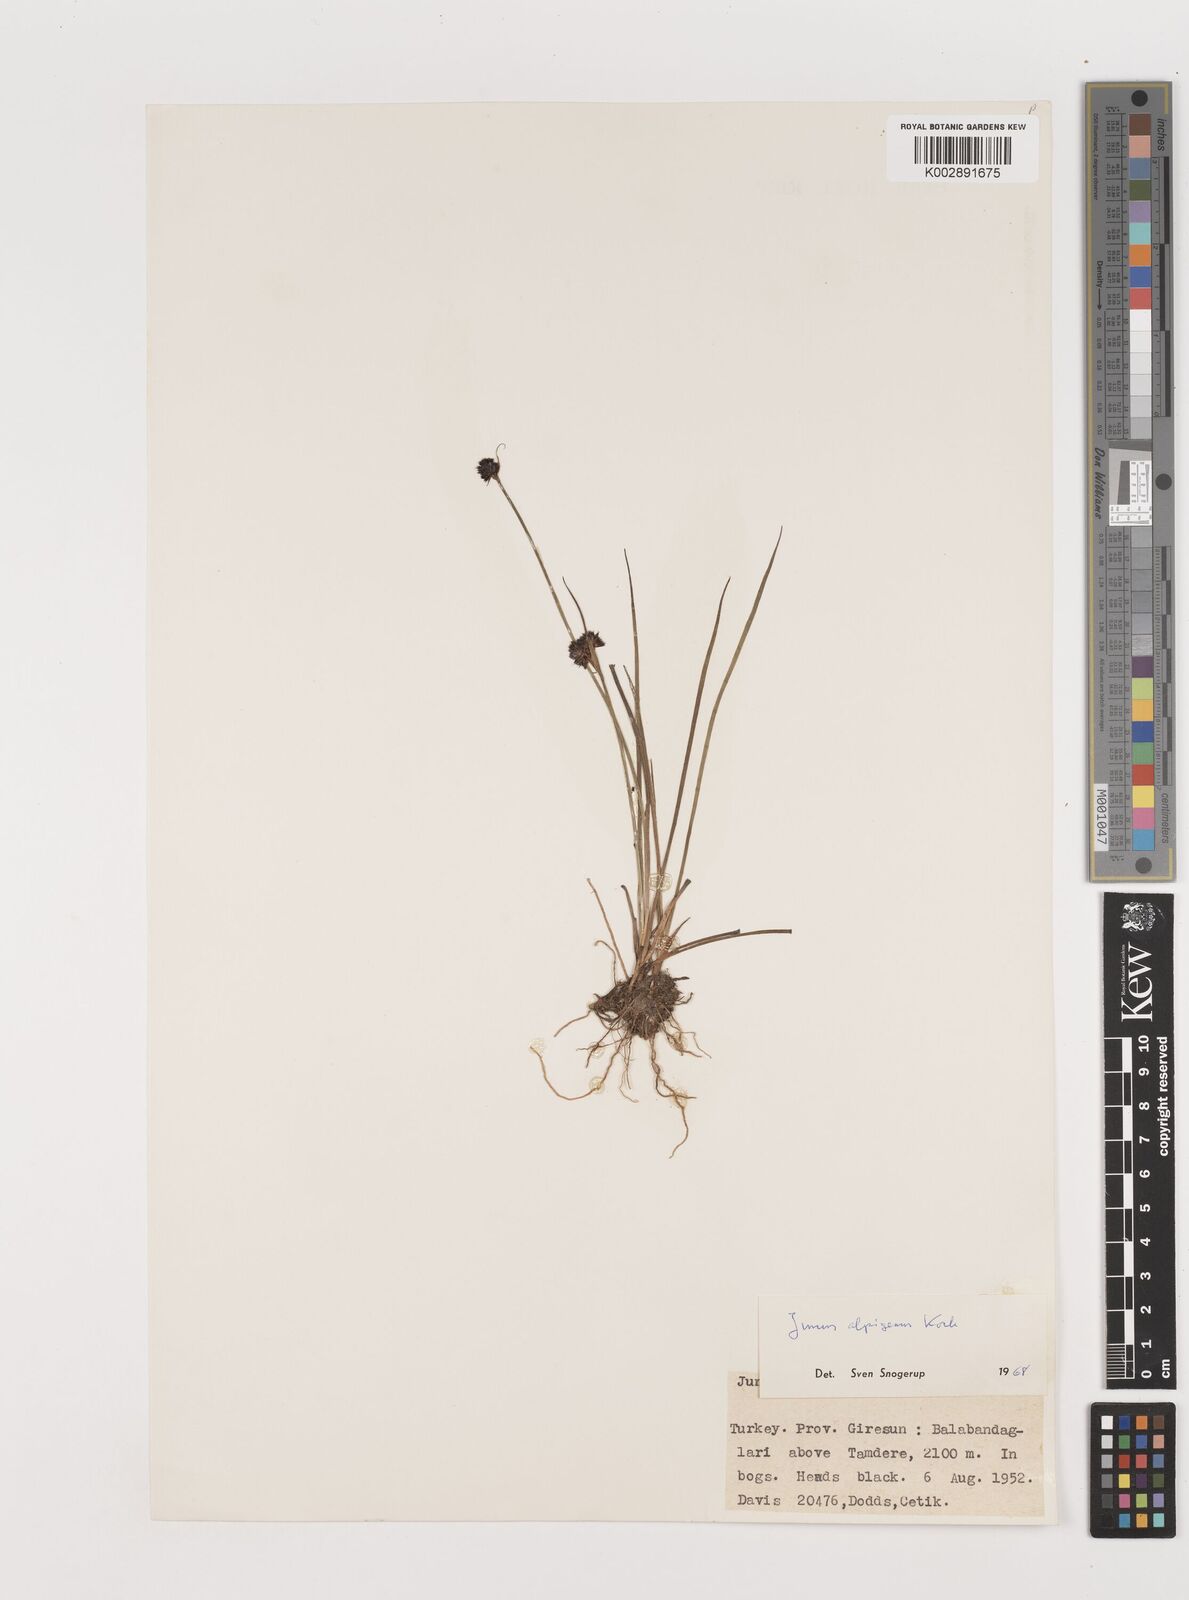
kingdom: Plantae
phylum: Tracheophyta
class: Liliopsida
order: Poales
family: Juncaceae
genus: Juncus
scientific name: Juncus alpigenus
